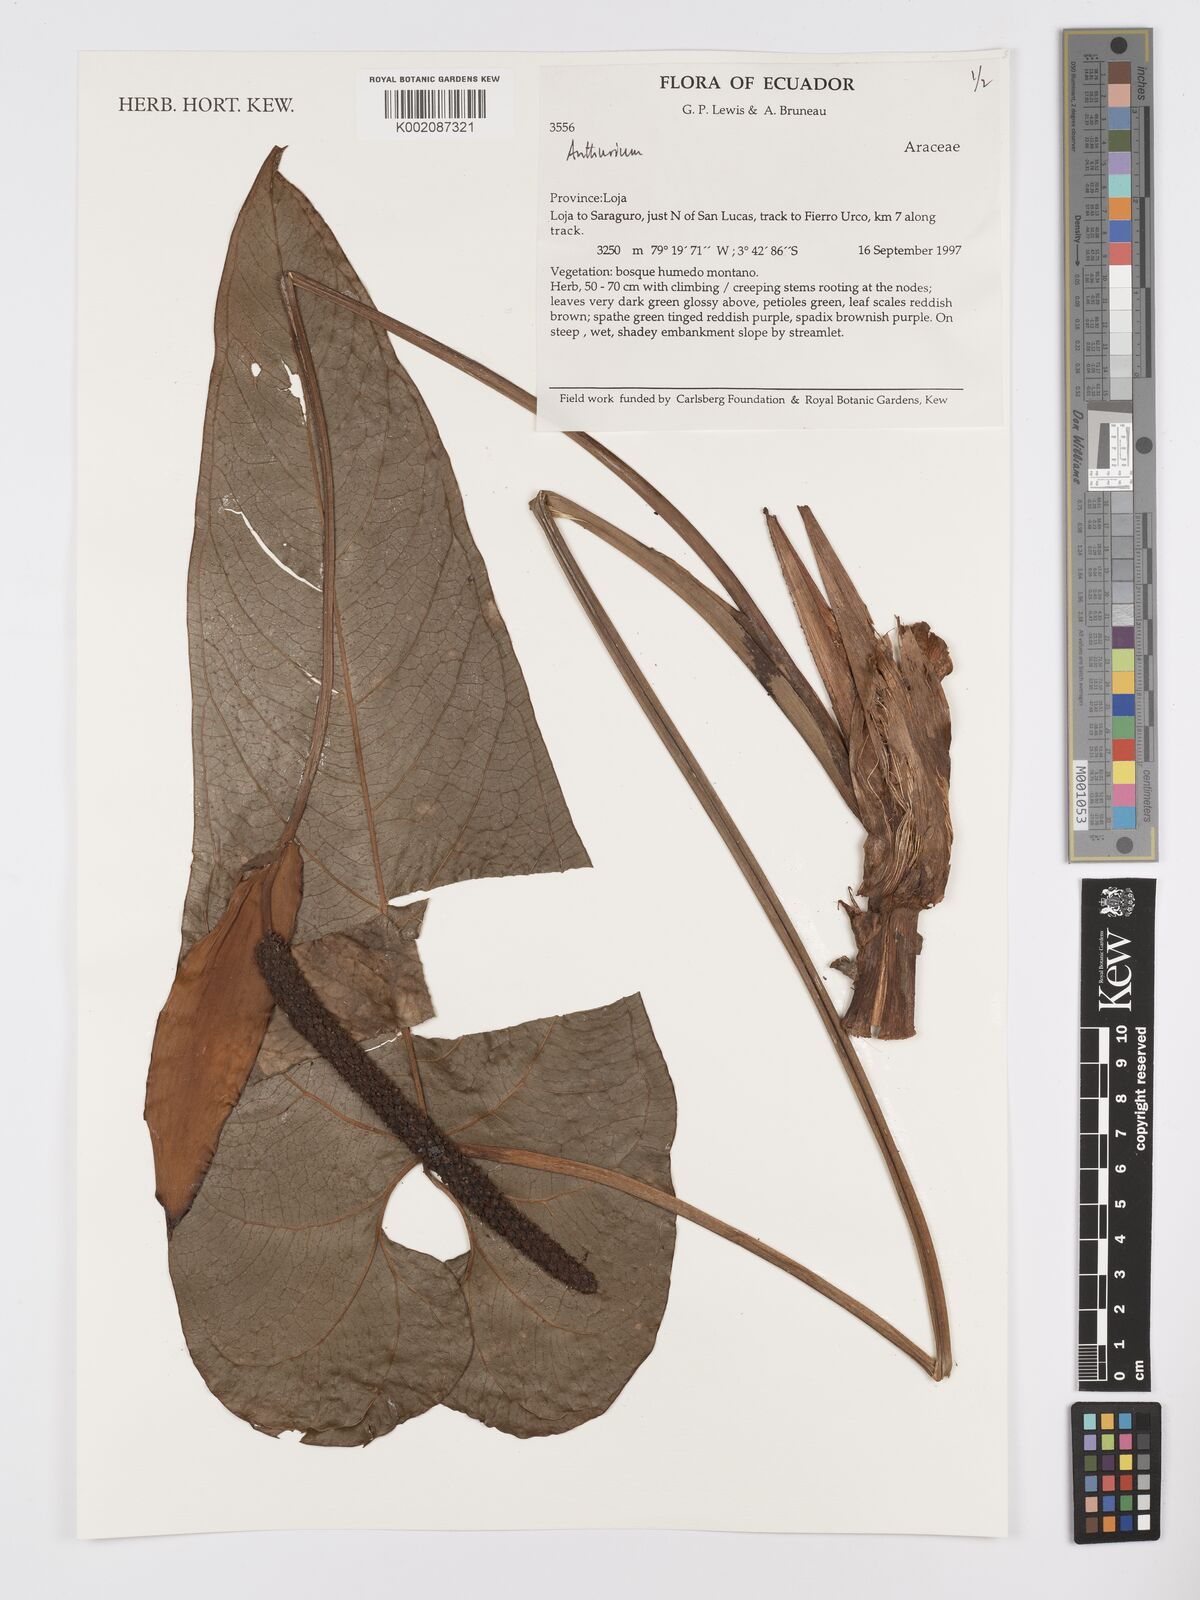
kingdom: Plantae
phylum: Tracheophyta
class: Liliopsida
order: Alismatales
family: Araceae
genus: Anthurium
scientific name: Anthurium
